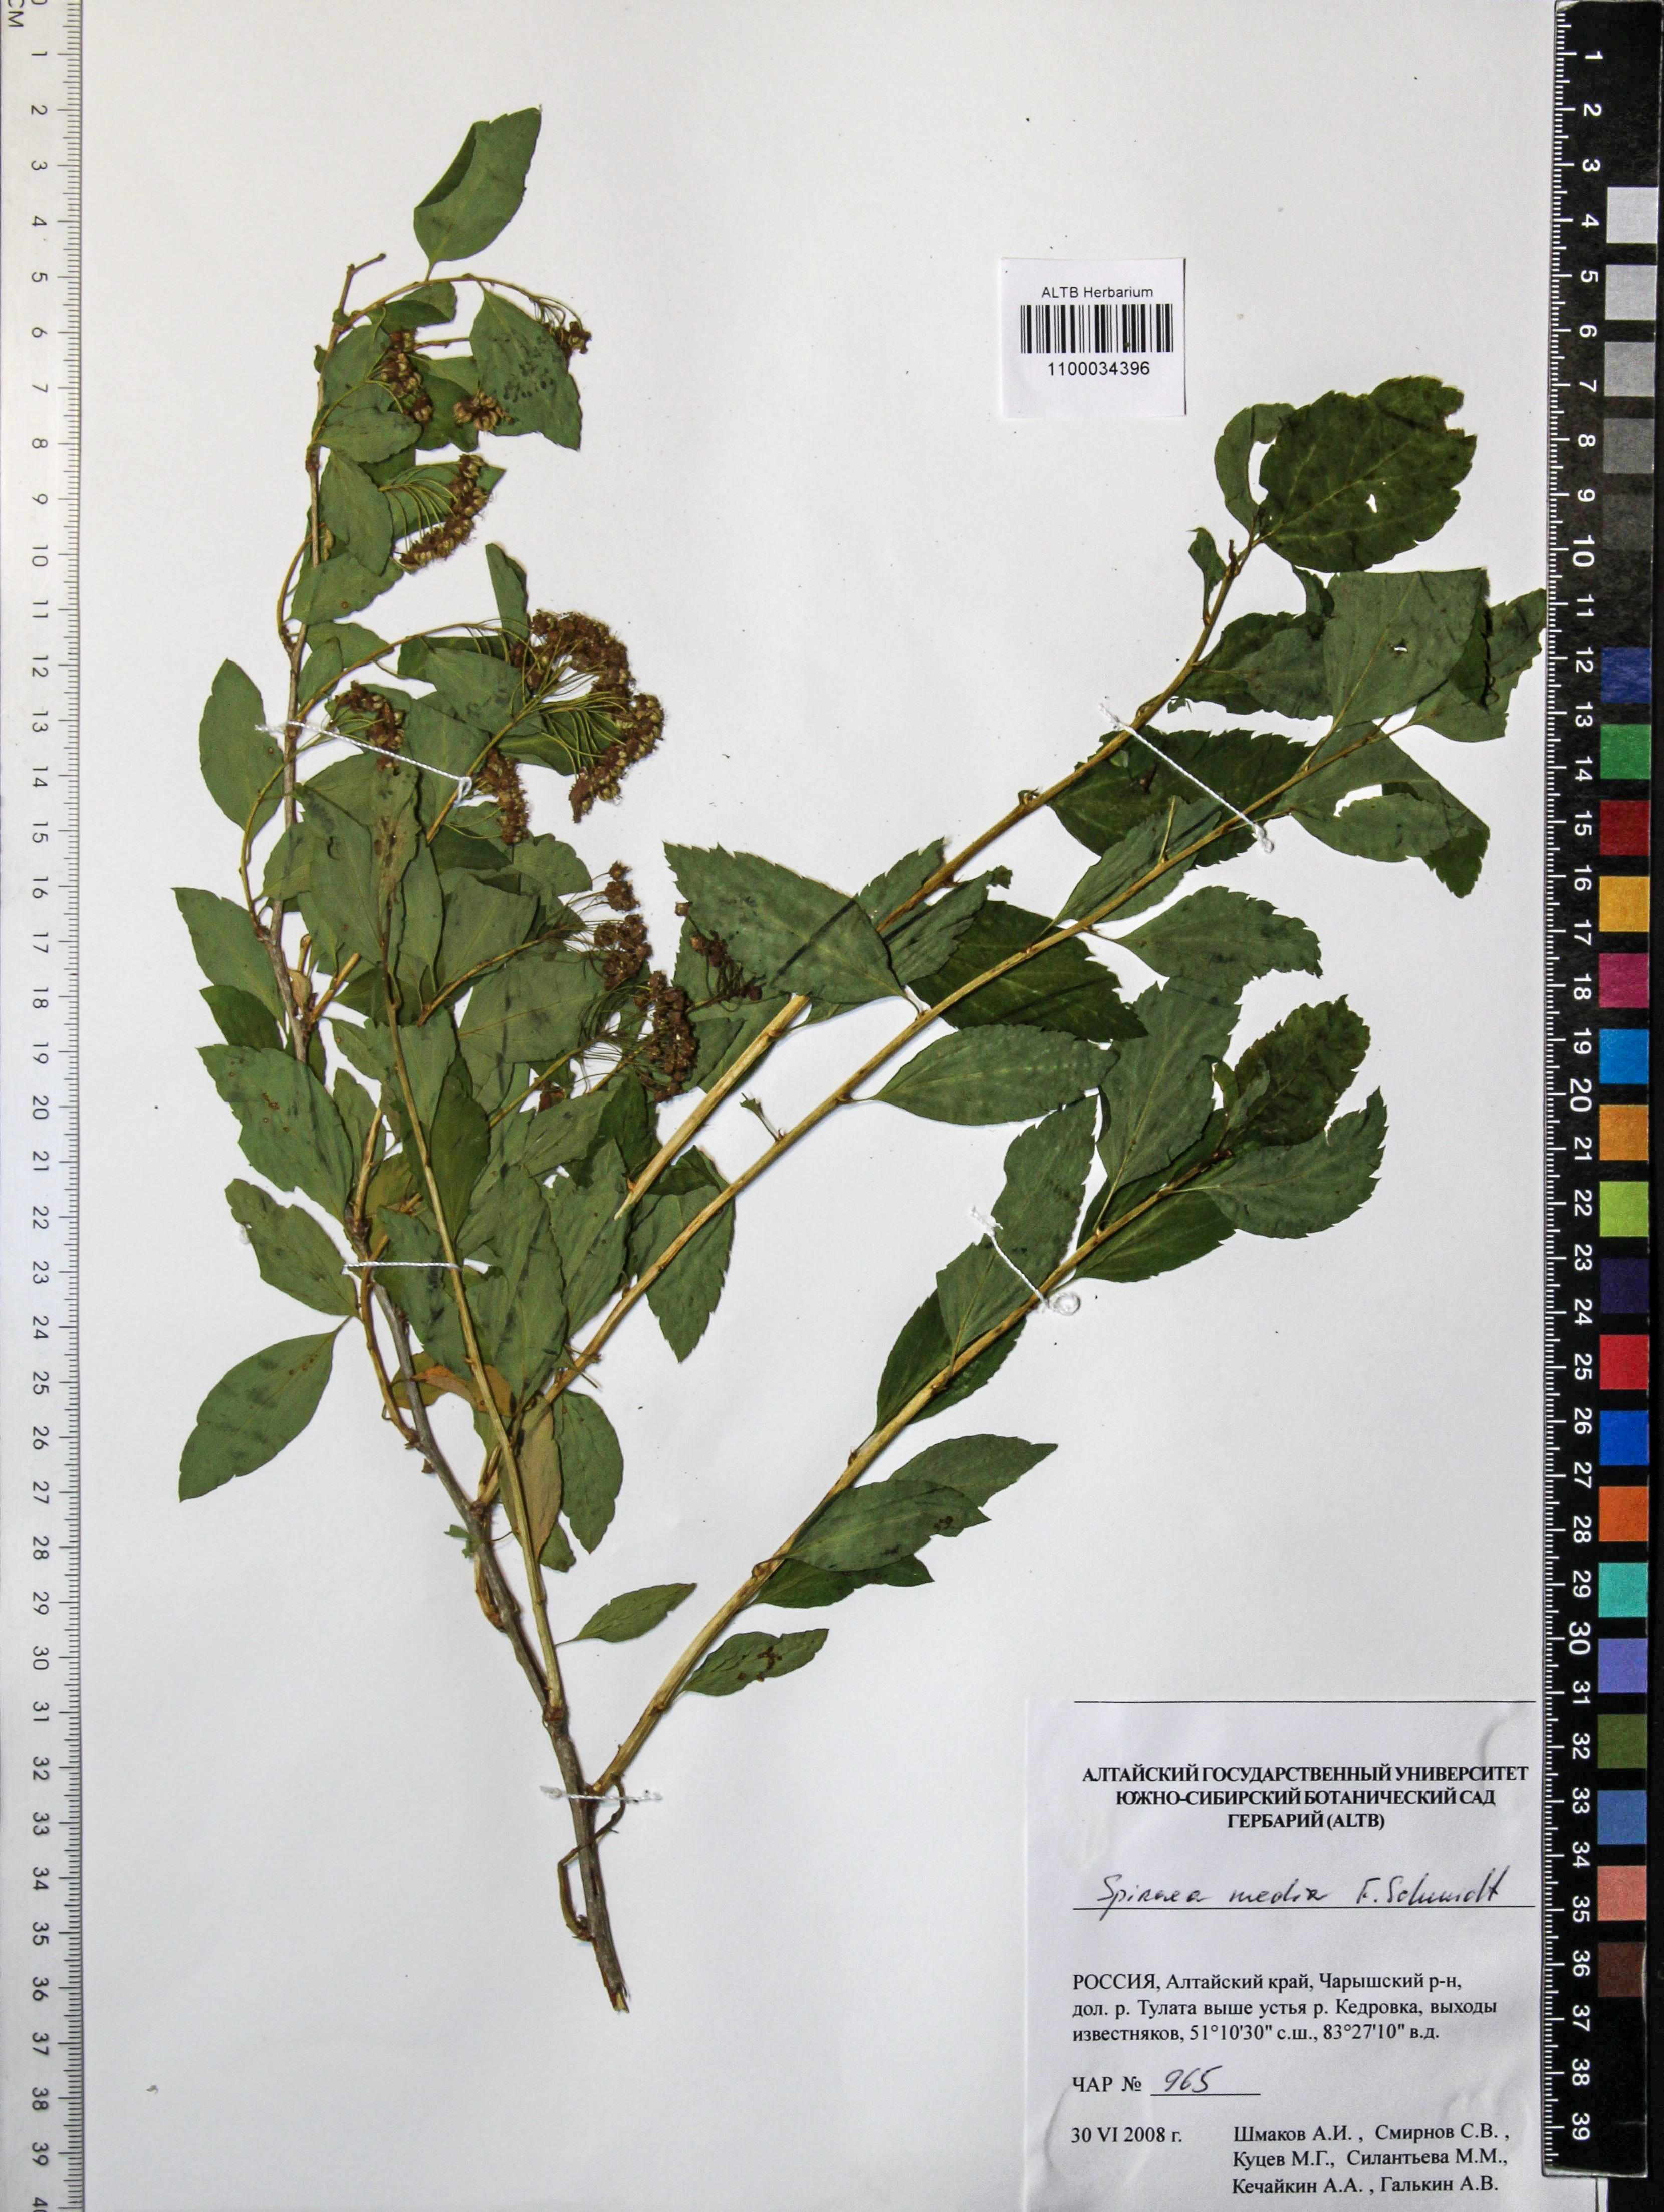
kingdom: Plantae
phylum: Tracheophyta
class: Magnoliopsida
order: Rosales
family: Rosaceae
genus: Spiraea
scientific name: Spiraea media
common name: Russian spiraea
